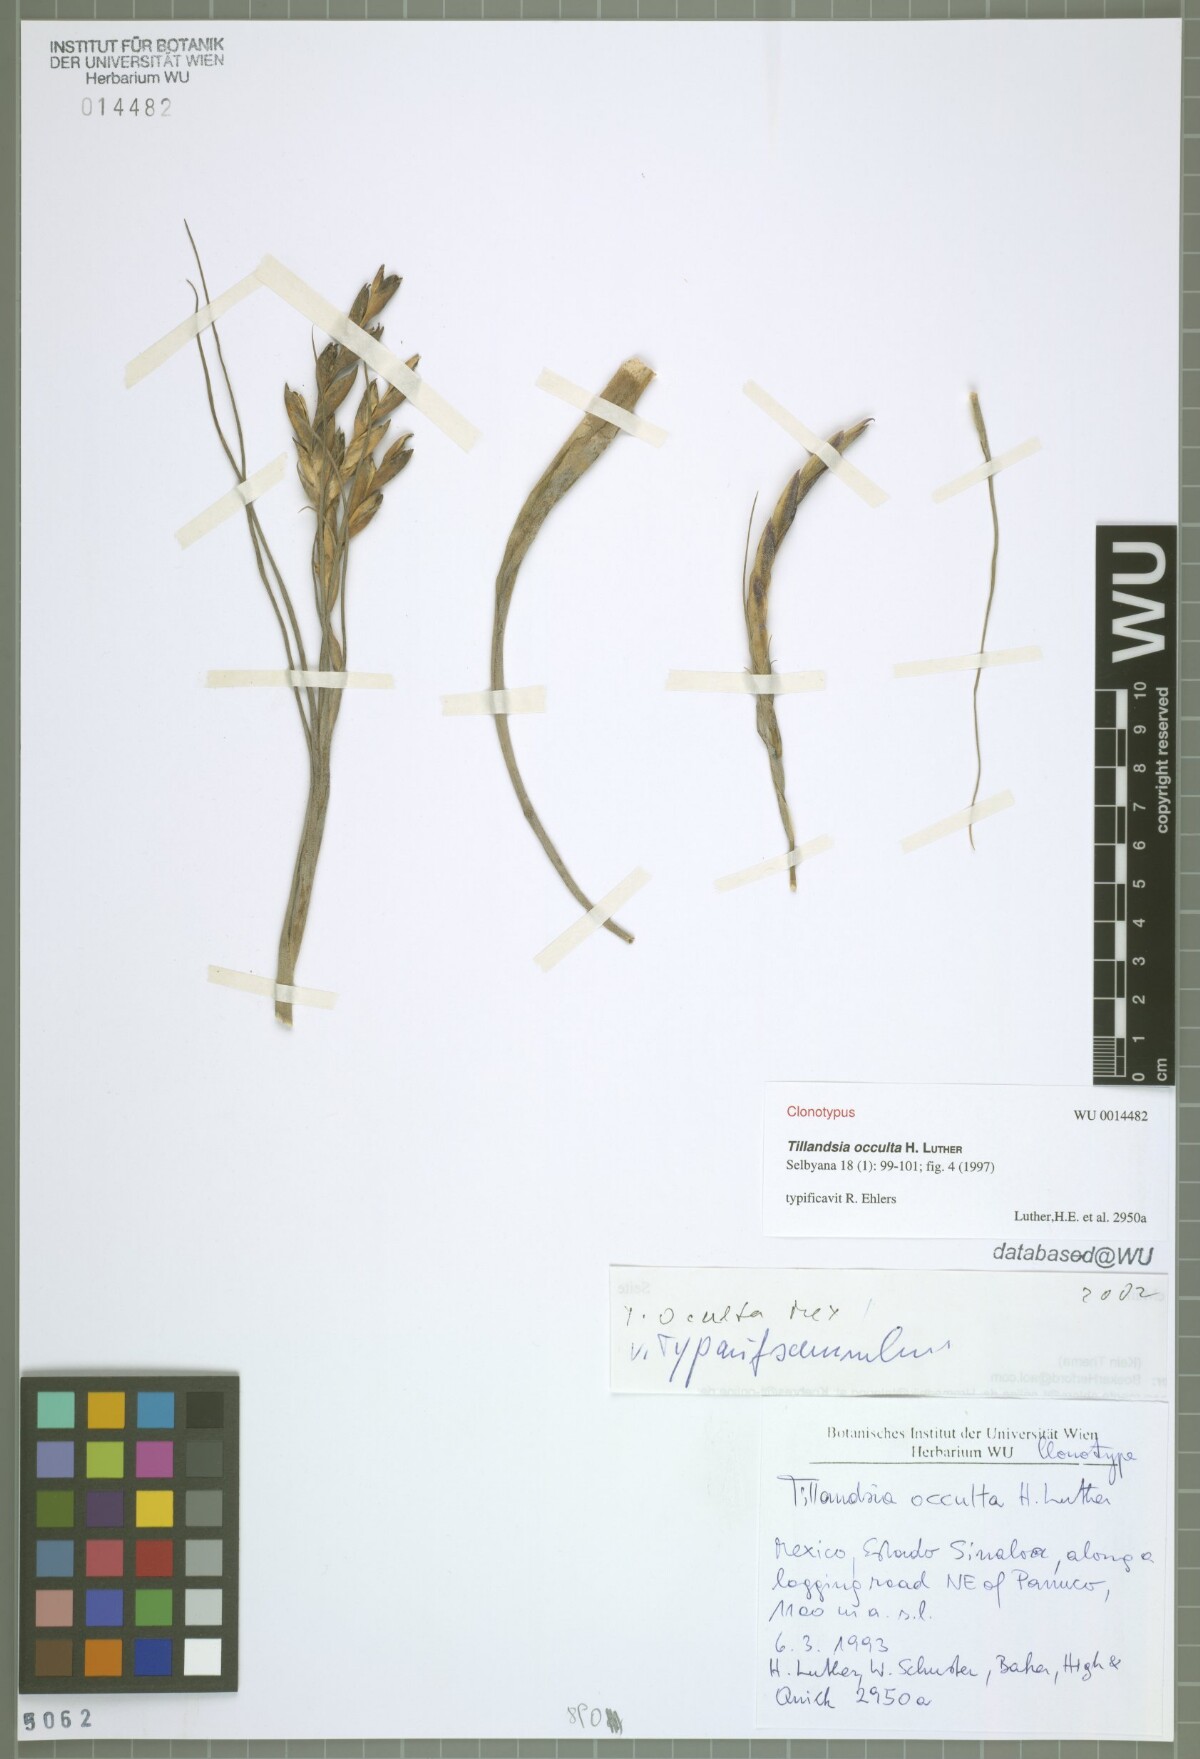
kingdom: Plantae
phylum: Tracheophyta
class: Liliopsida
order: Poales
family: Bromeliaceae
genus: Tillandsia
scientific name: Tillandsia occulta
